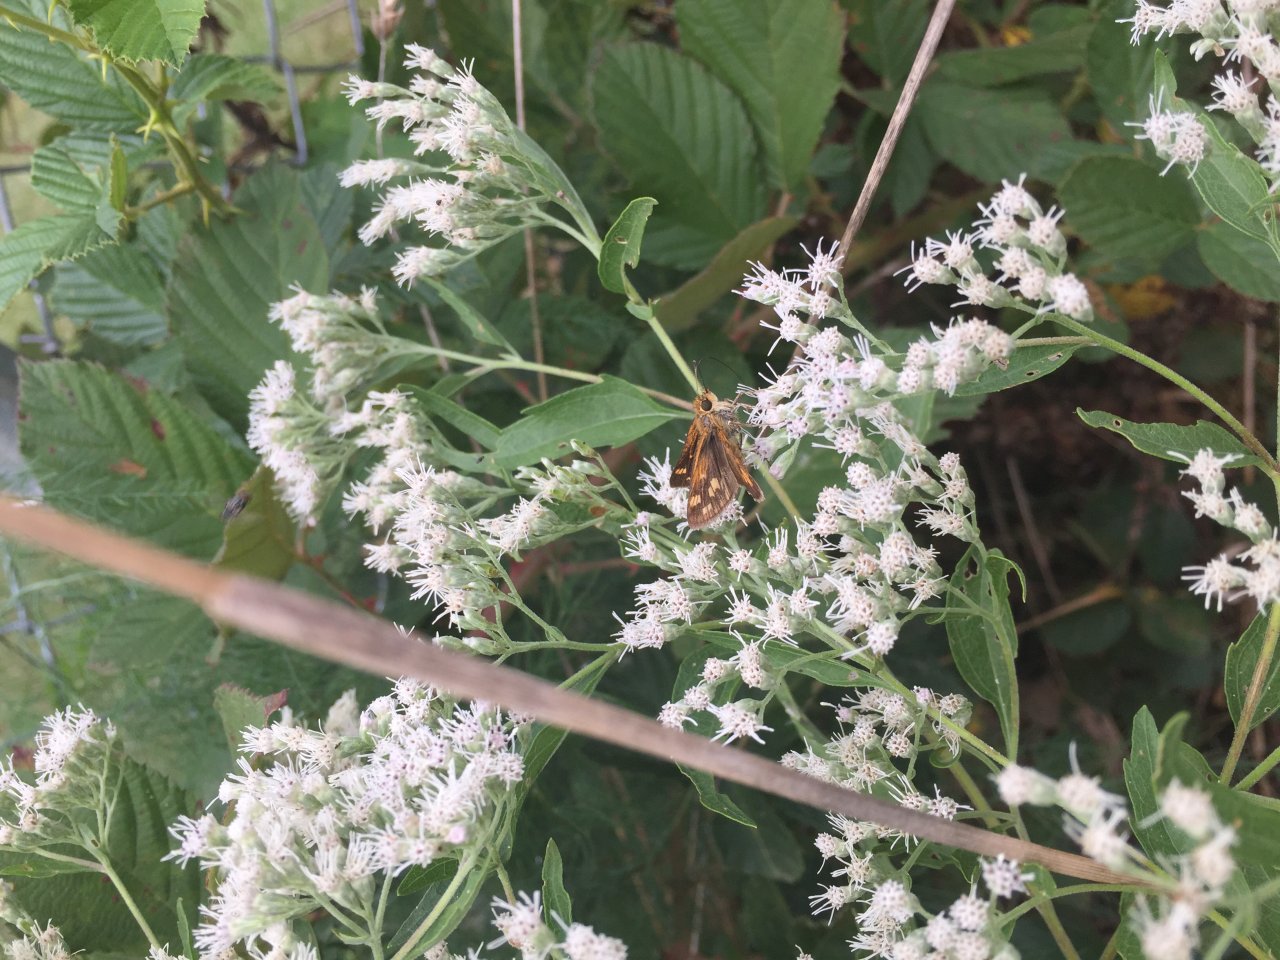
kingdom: Animalia
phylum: Arthropoda
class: Insecta
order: Lepidoptera
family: Hesperiidae
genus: Polites
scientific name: Polites coras
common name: Peck's Skipper
